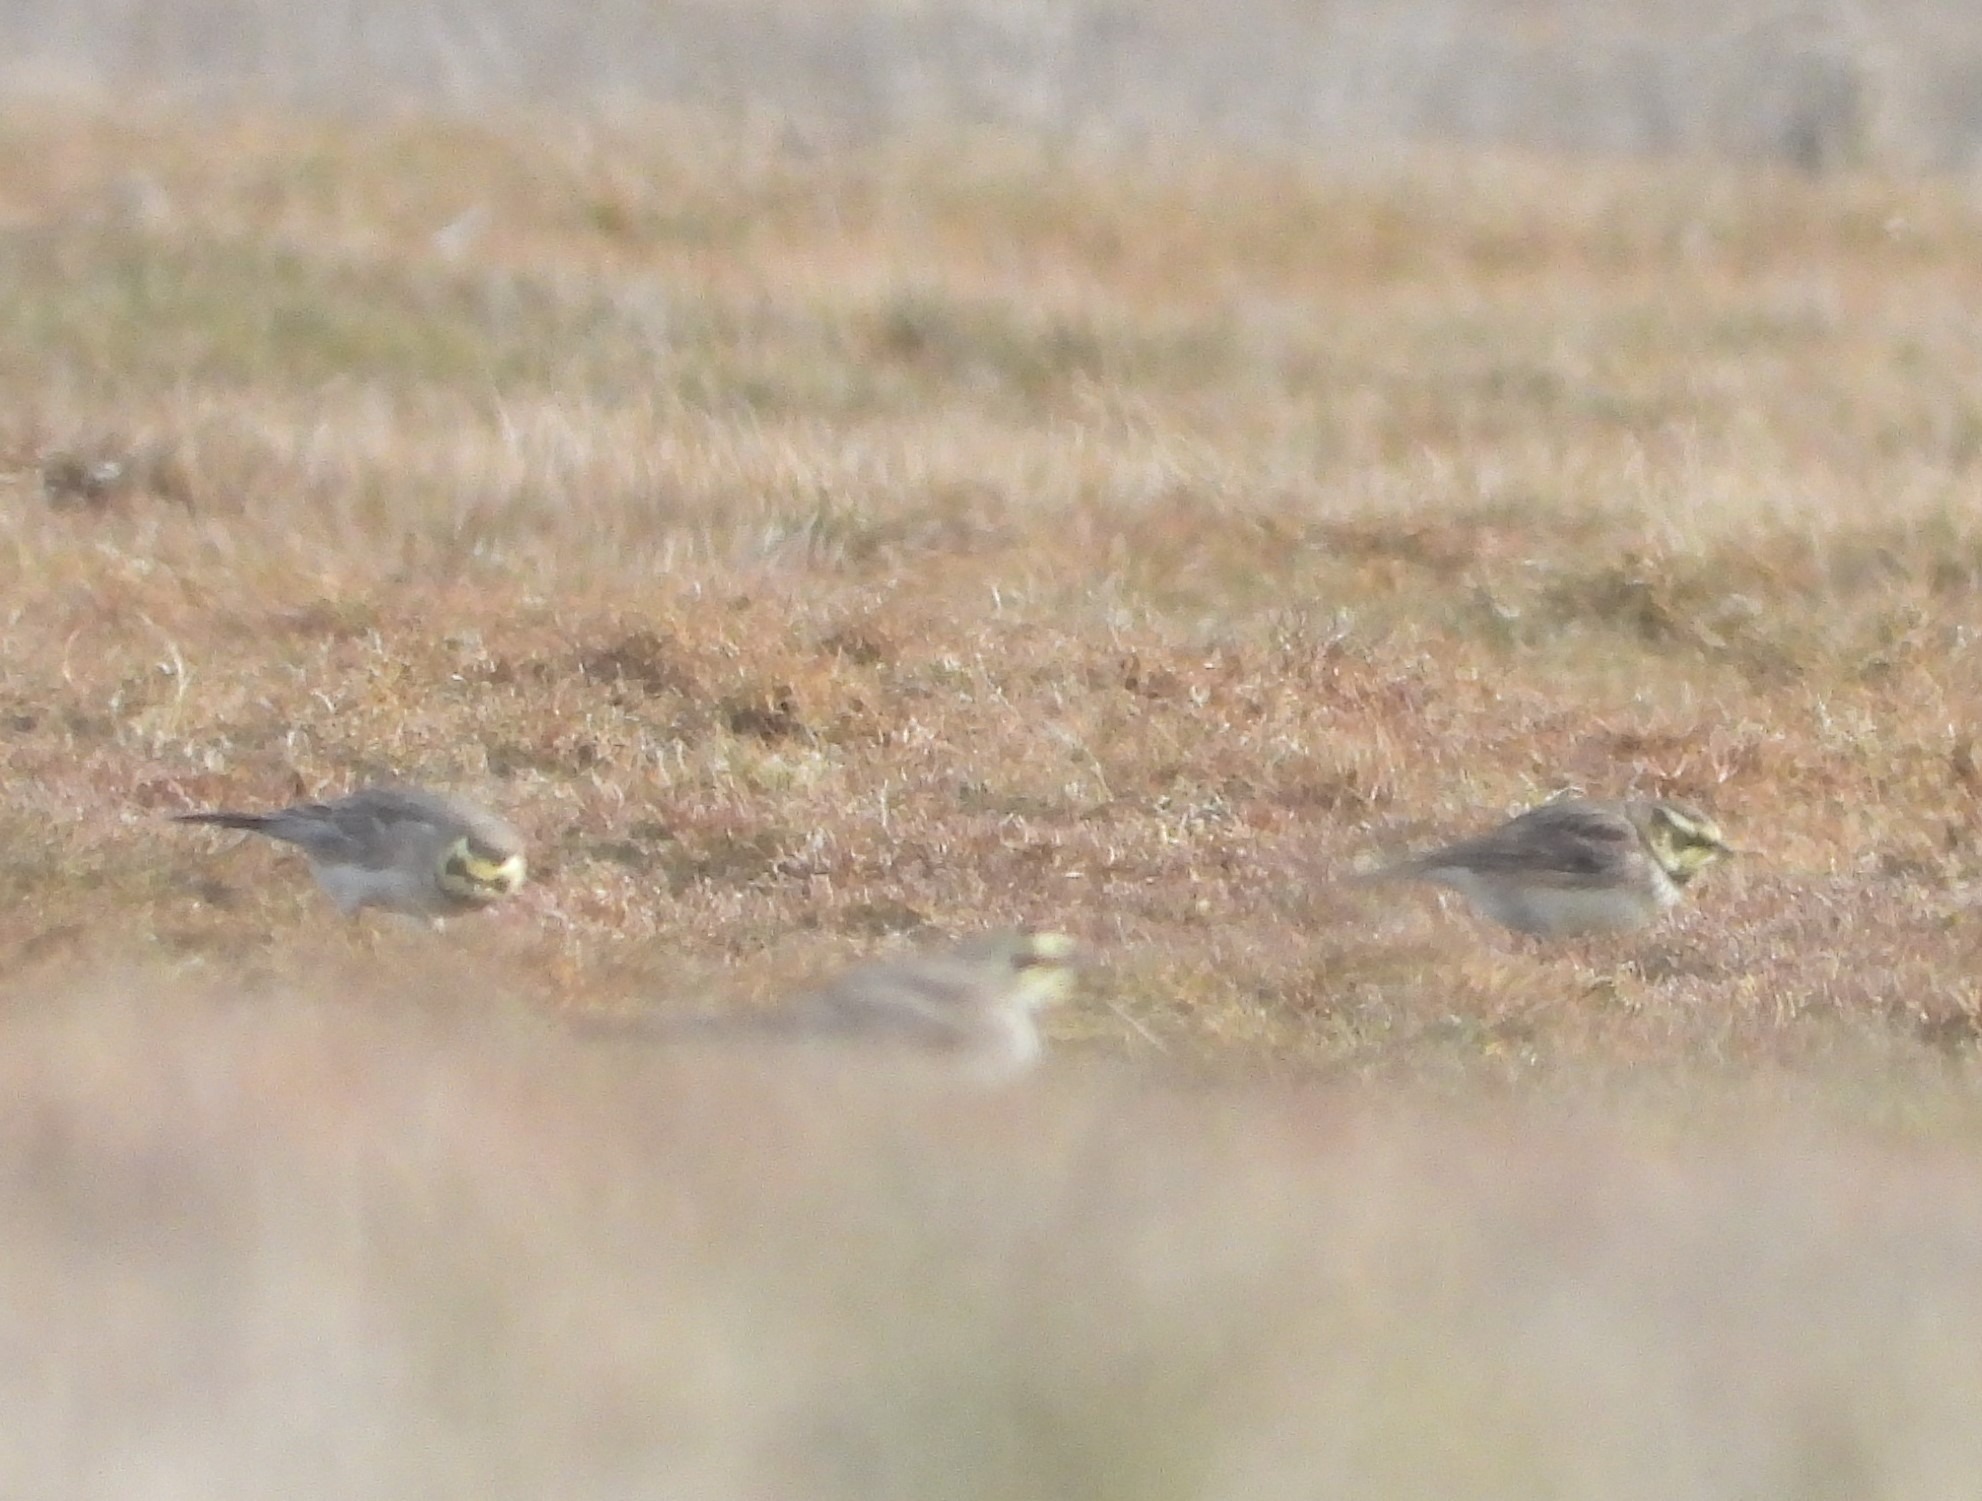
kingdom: Animalia
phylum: Chordata
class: Aves
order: Passeriformes
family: Alaudidae
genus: Eremophila
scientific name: Eremophila alpestris
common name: Bjerglærke
